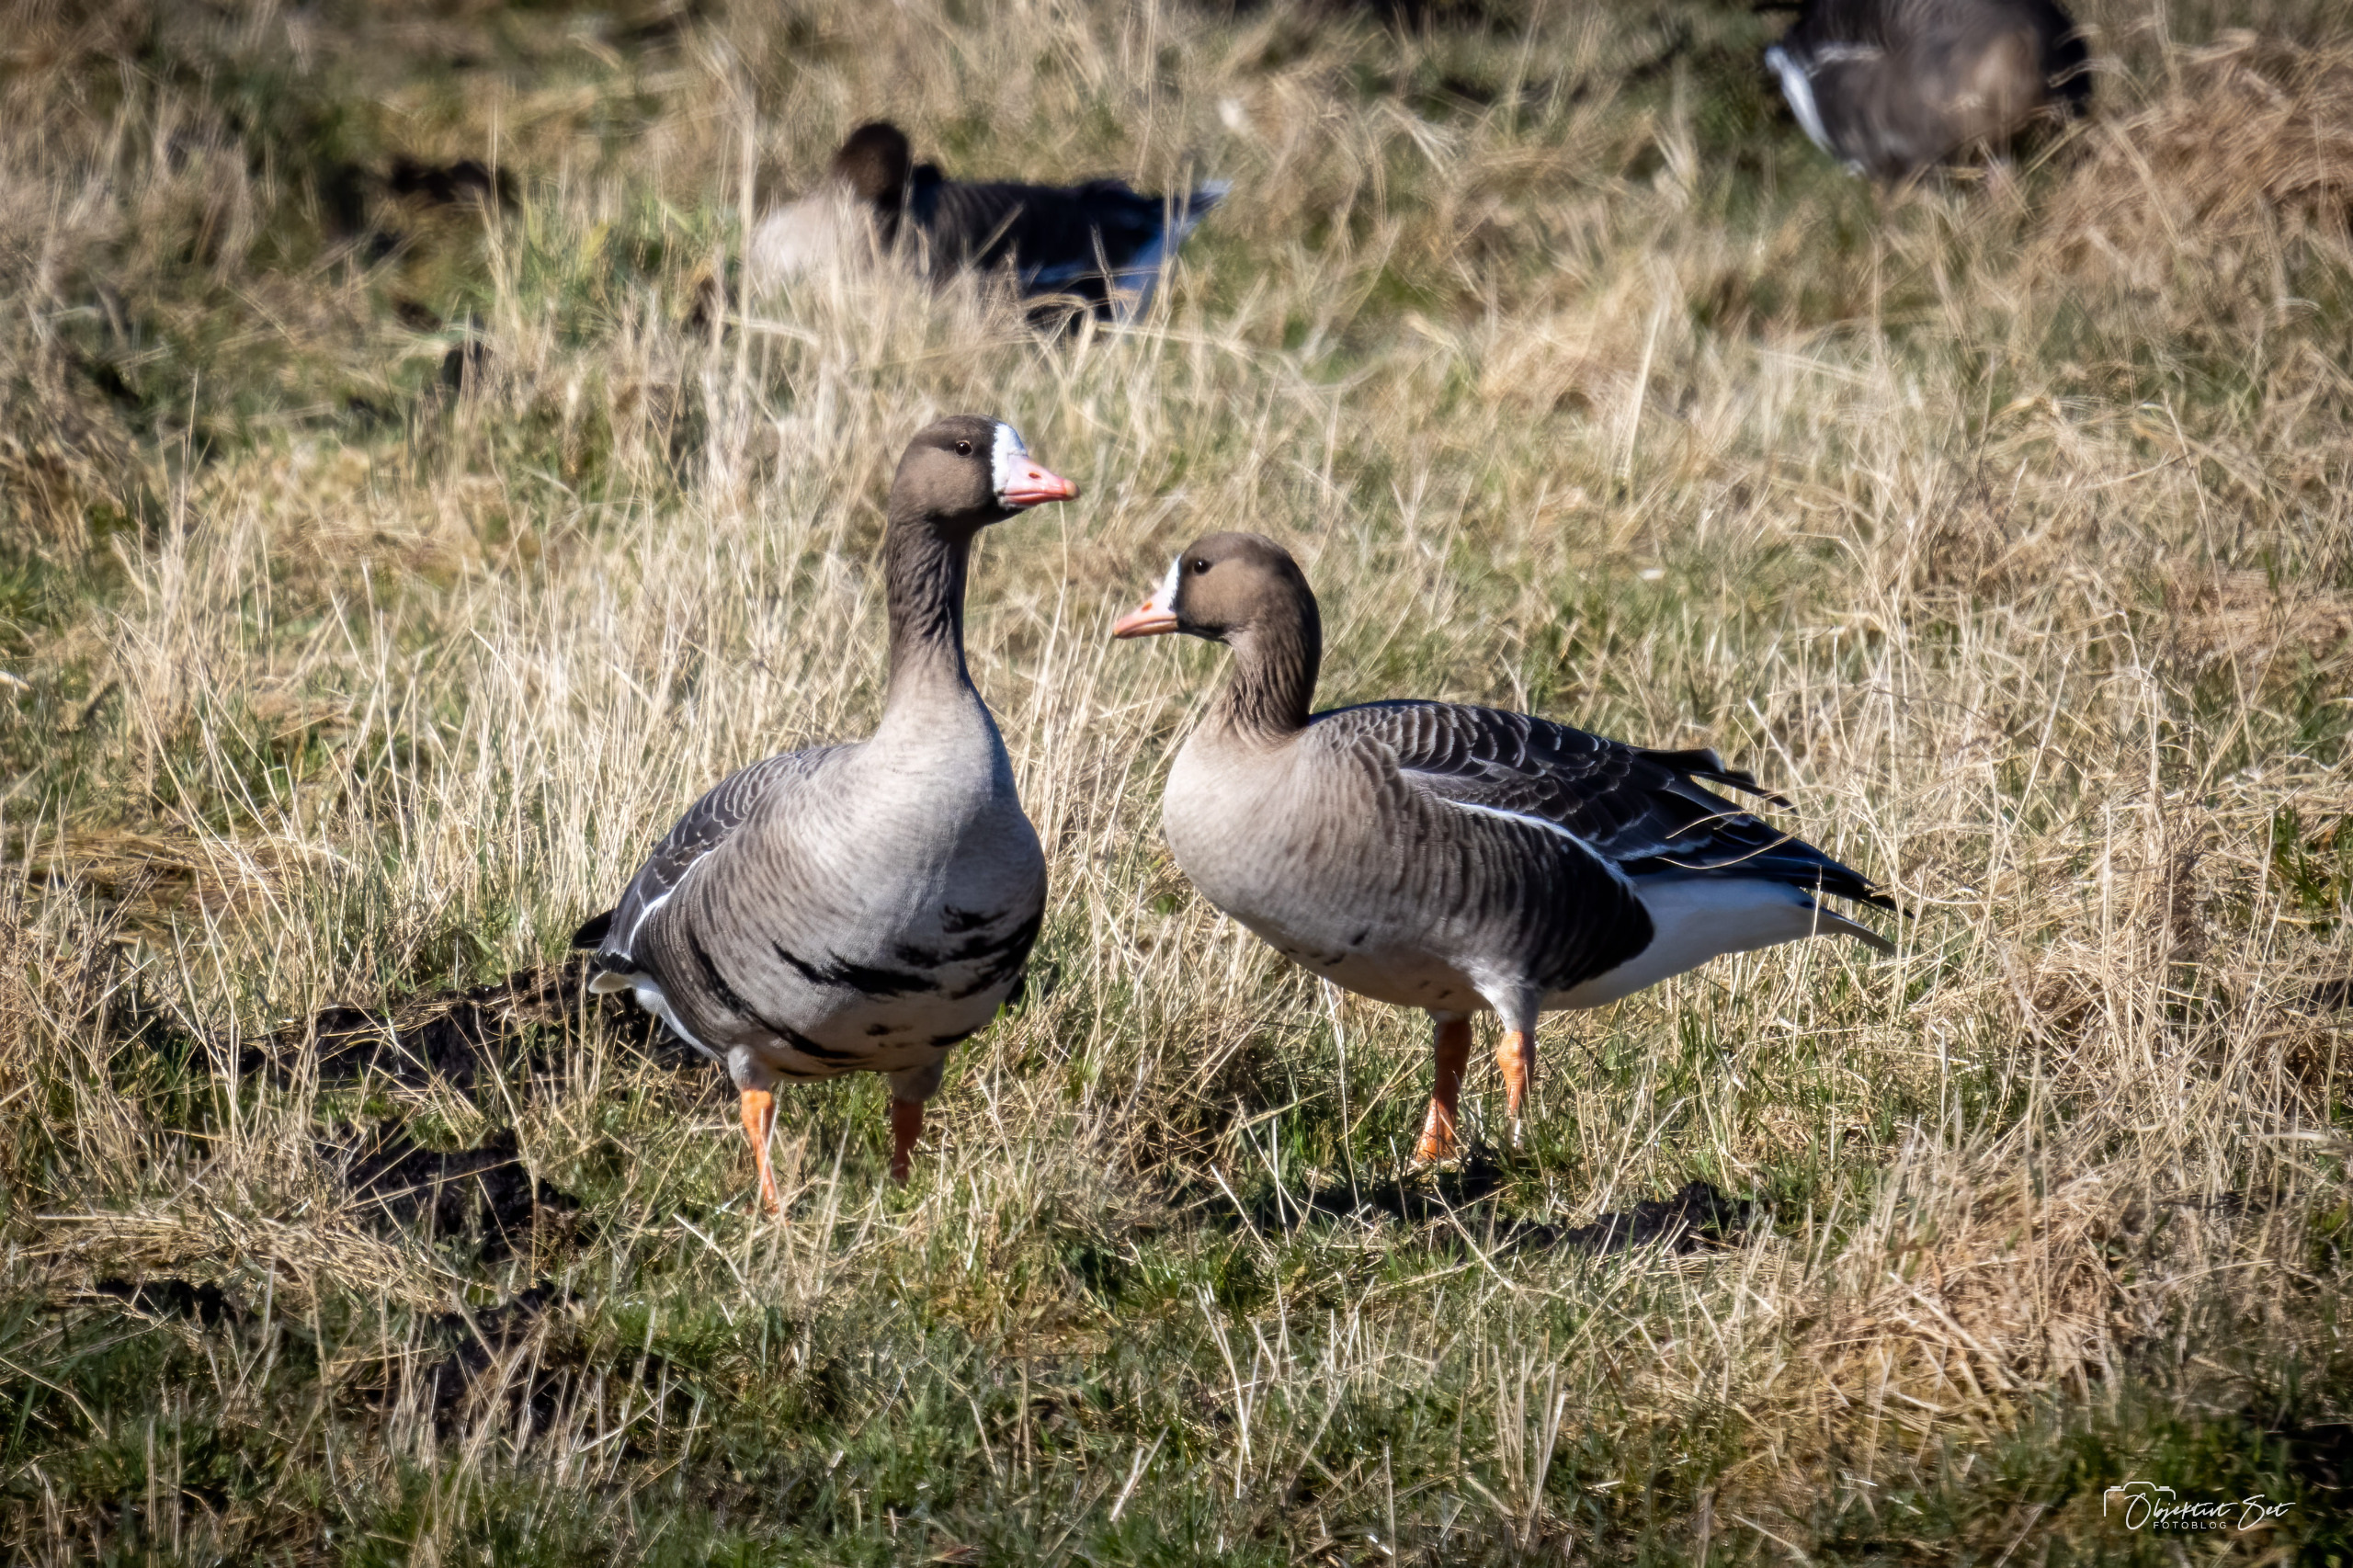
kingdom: Animalia
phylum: Chordata
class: Aves
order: Anseriformes
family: Anatidae
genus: Anser
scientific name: Anser albifrons
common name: Blisgås
